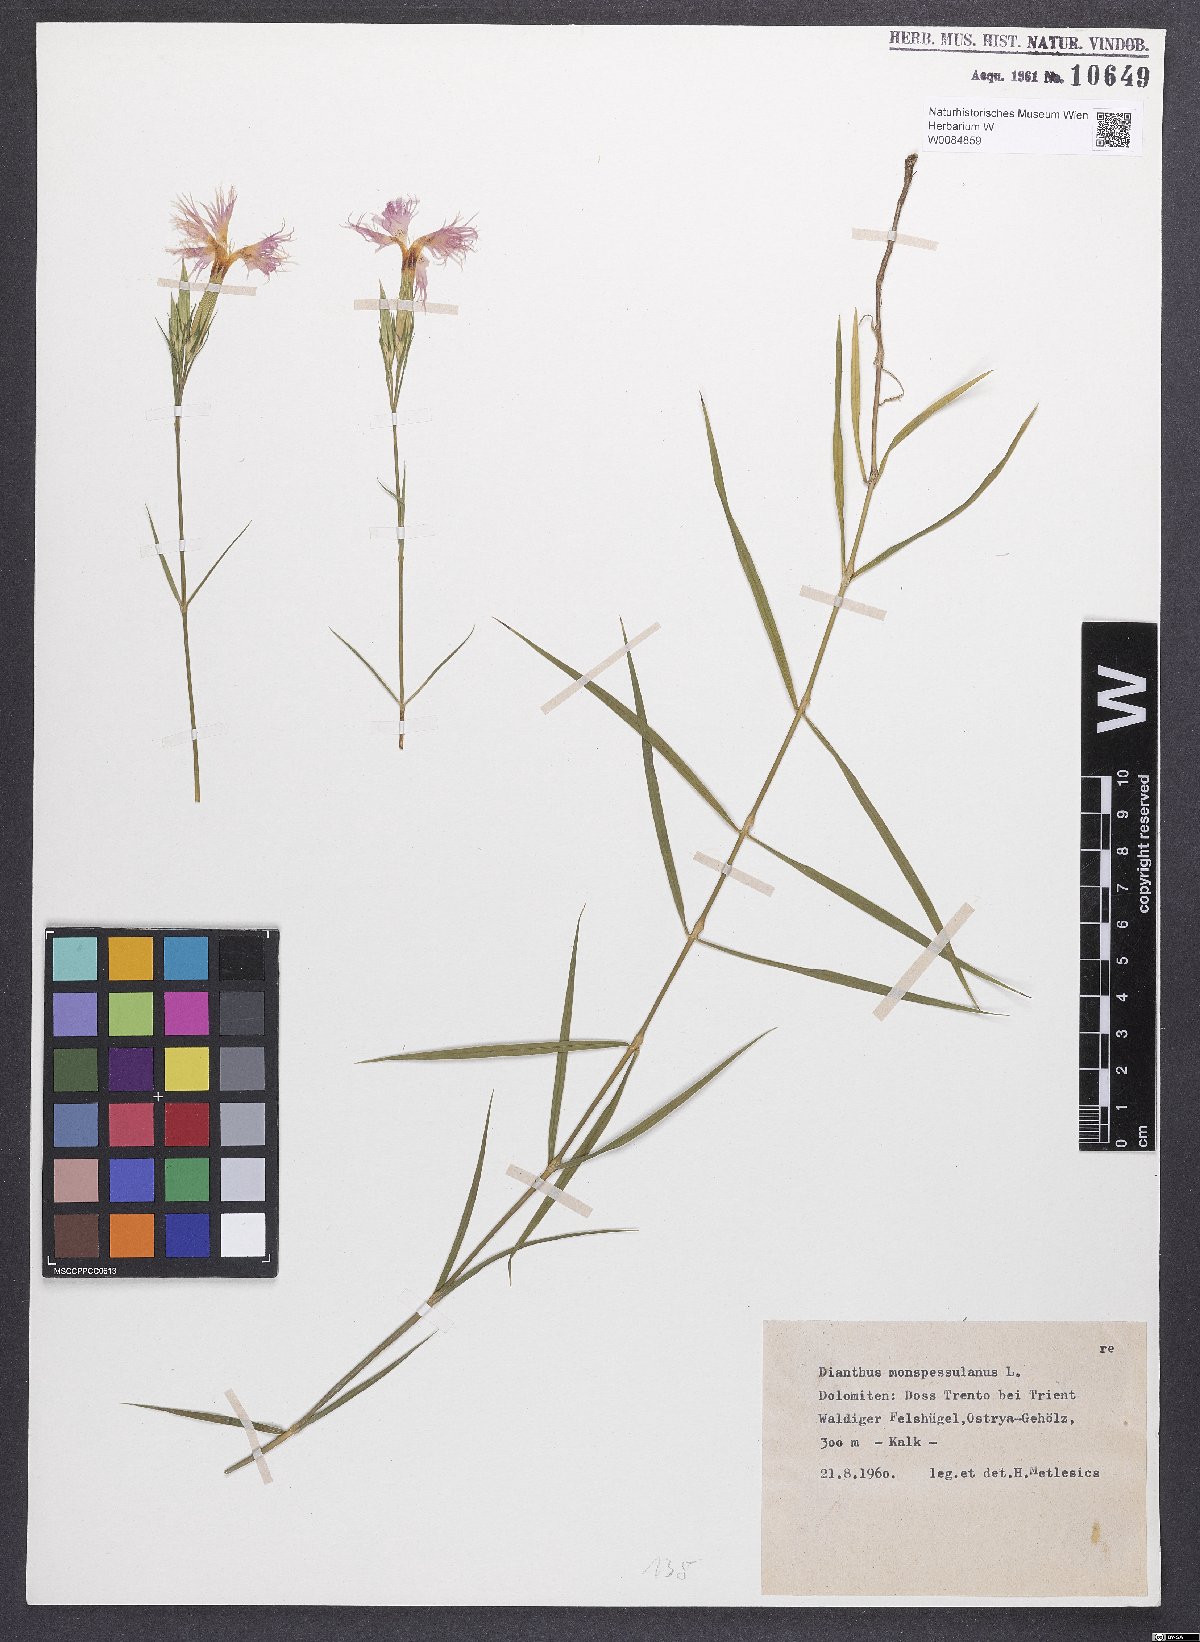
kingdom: Plantae
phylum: Tracheophyta
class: Magnoliopsida
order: Caryophyllales
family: Caryophyllaceae
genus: Dianthus
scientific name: Dianthus hyssopifolius
